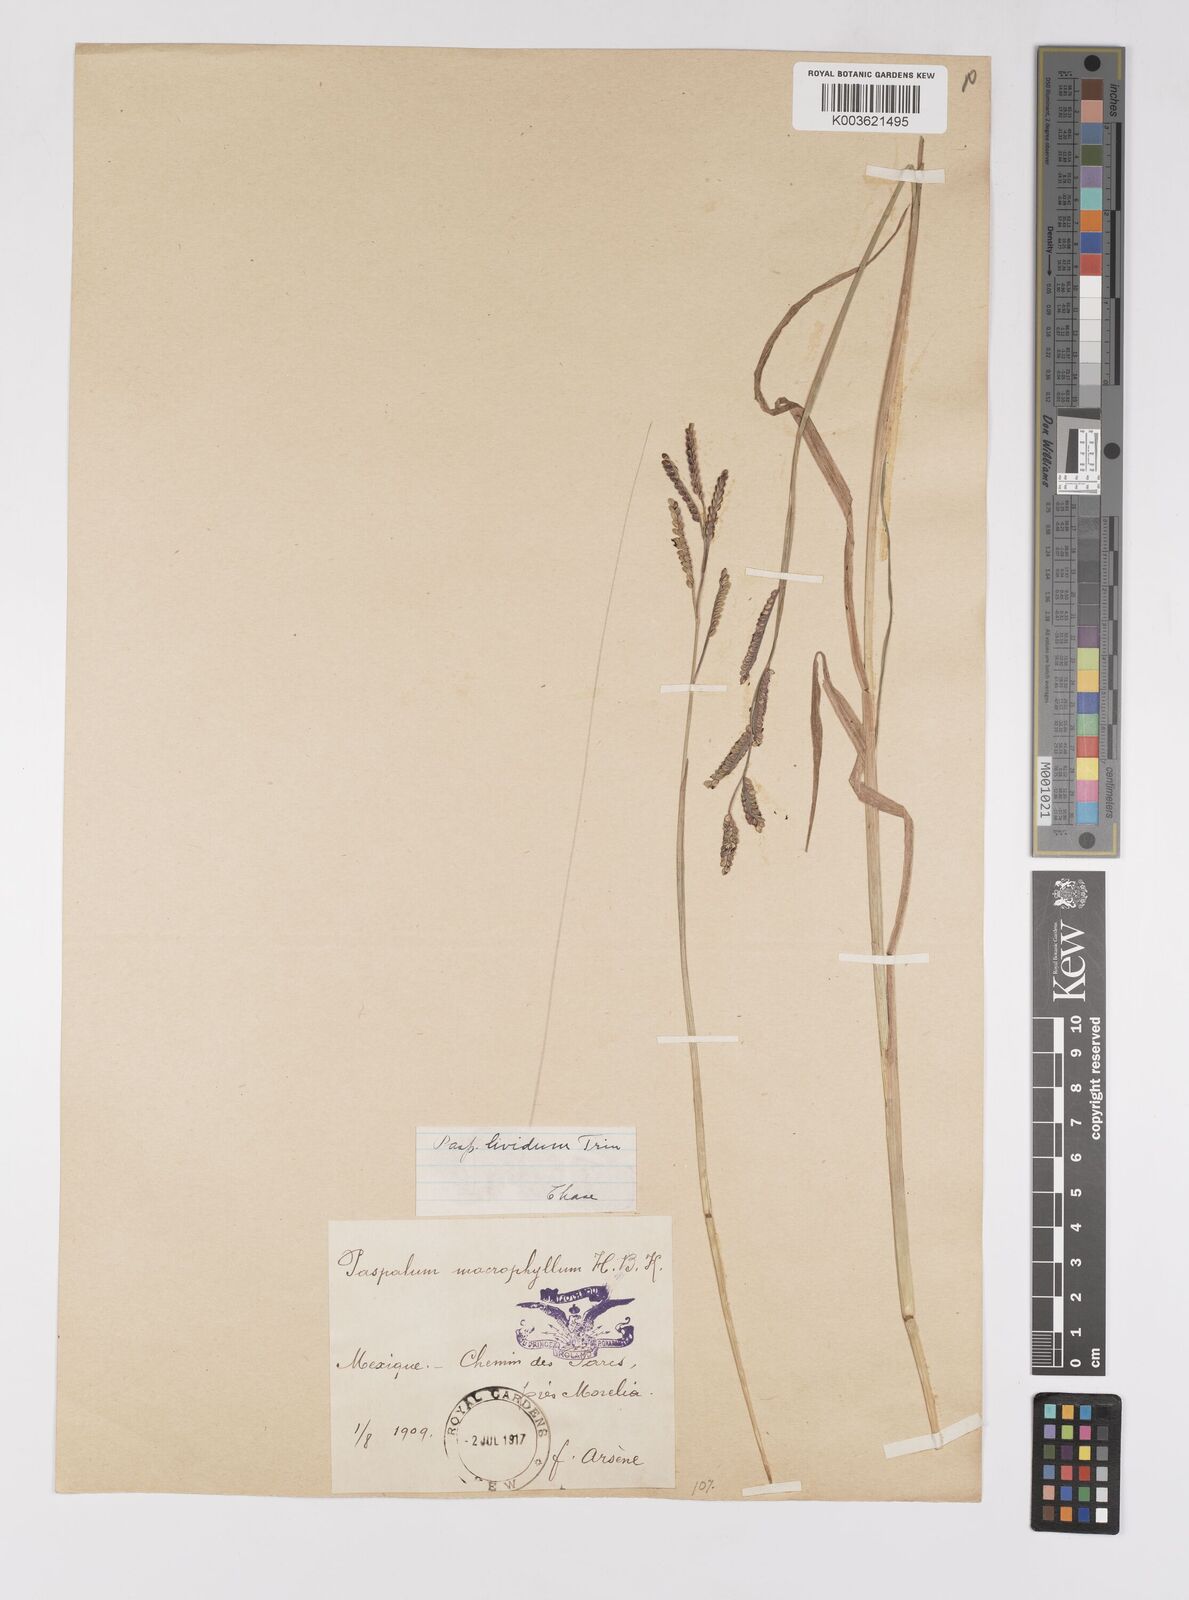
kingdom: Plantae
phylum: Tracheophyta
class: Liliopsida
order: Poales
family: Poaceae
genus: Paspalum
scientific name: Paspalum denticulatum
